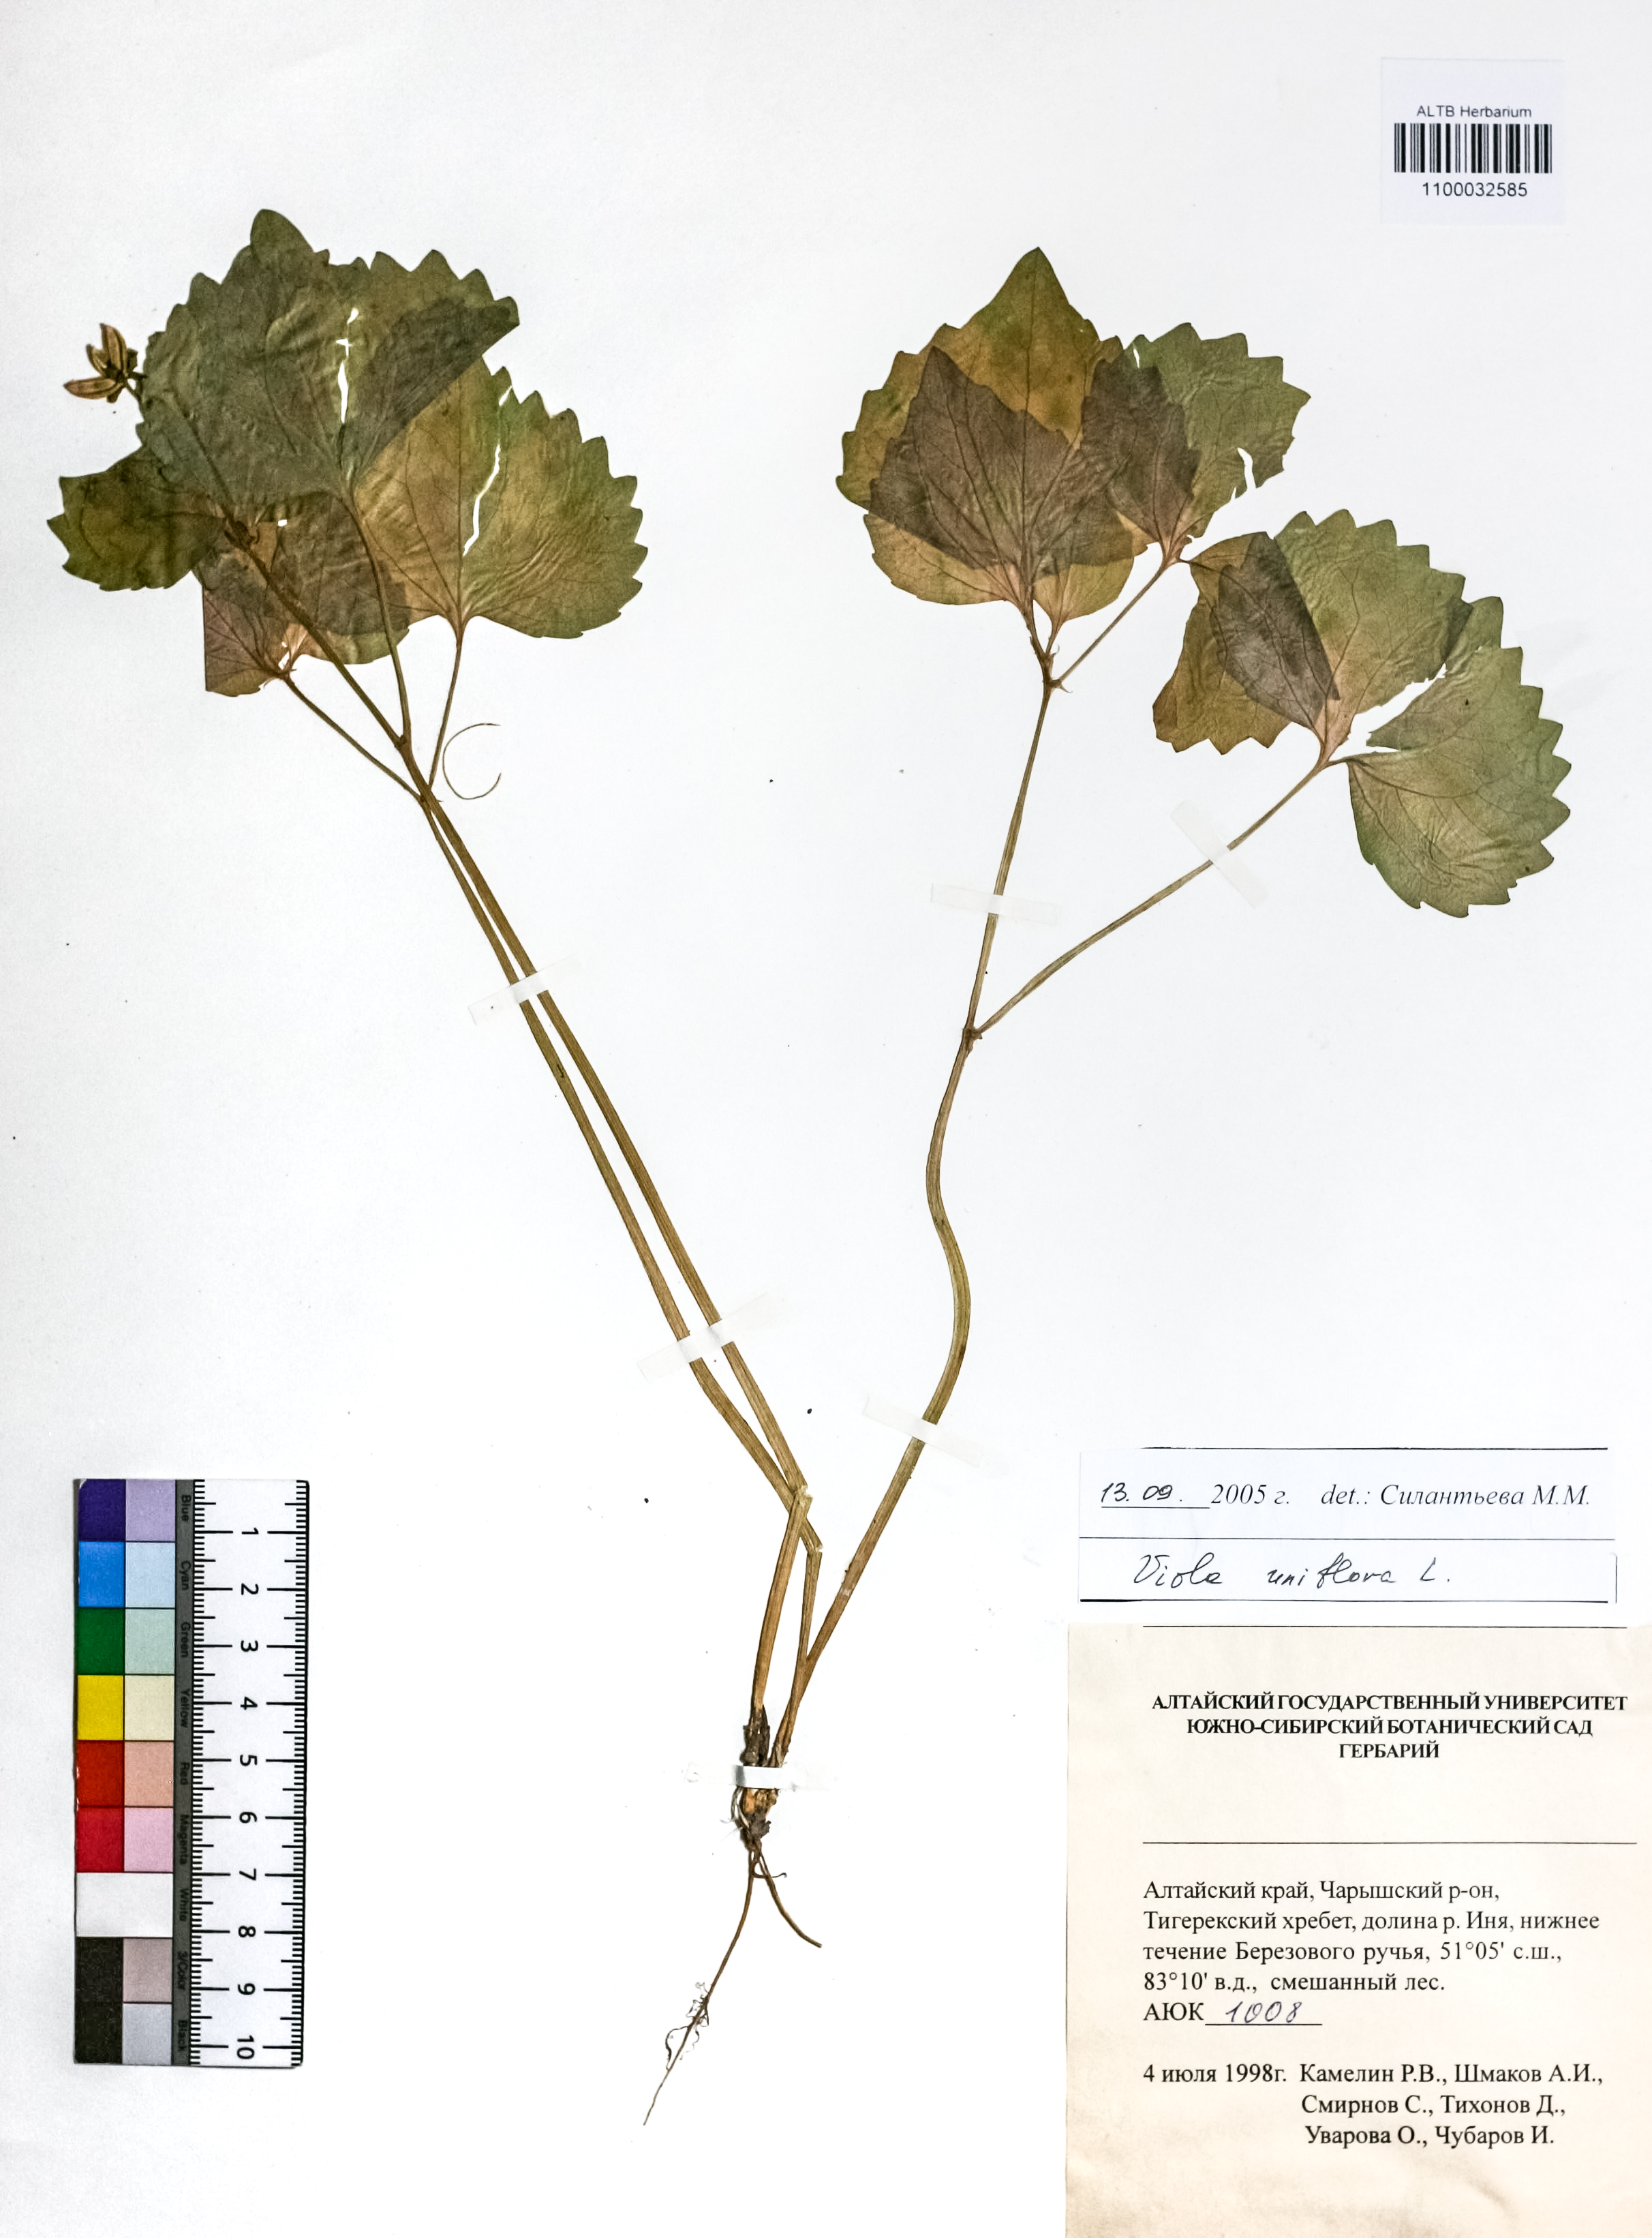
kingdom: Plantae
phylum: Tracheophyta
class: Magnoliopsida
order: Malpighiales
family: Violaceae
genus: Viola
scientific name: Viola uniflora
